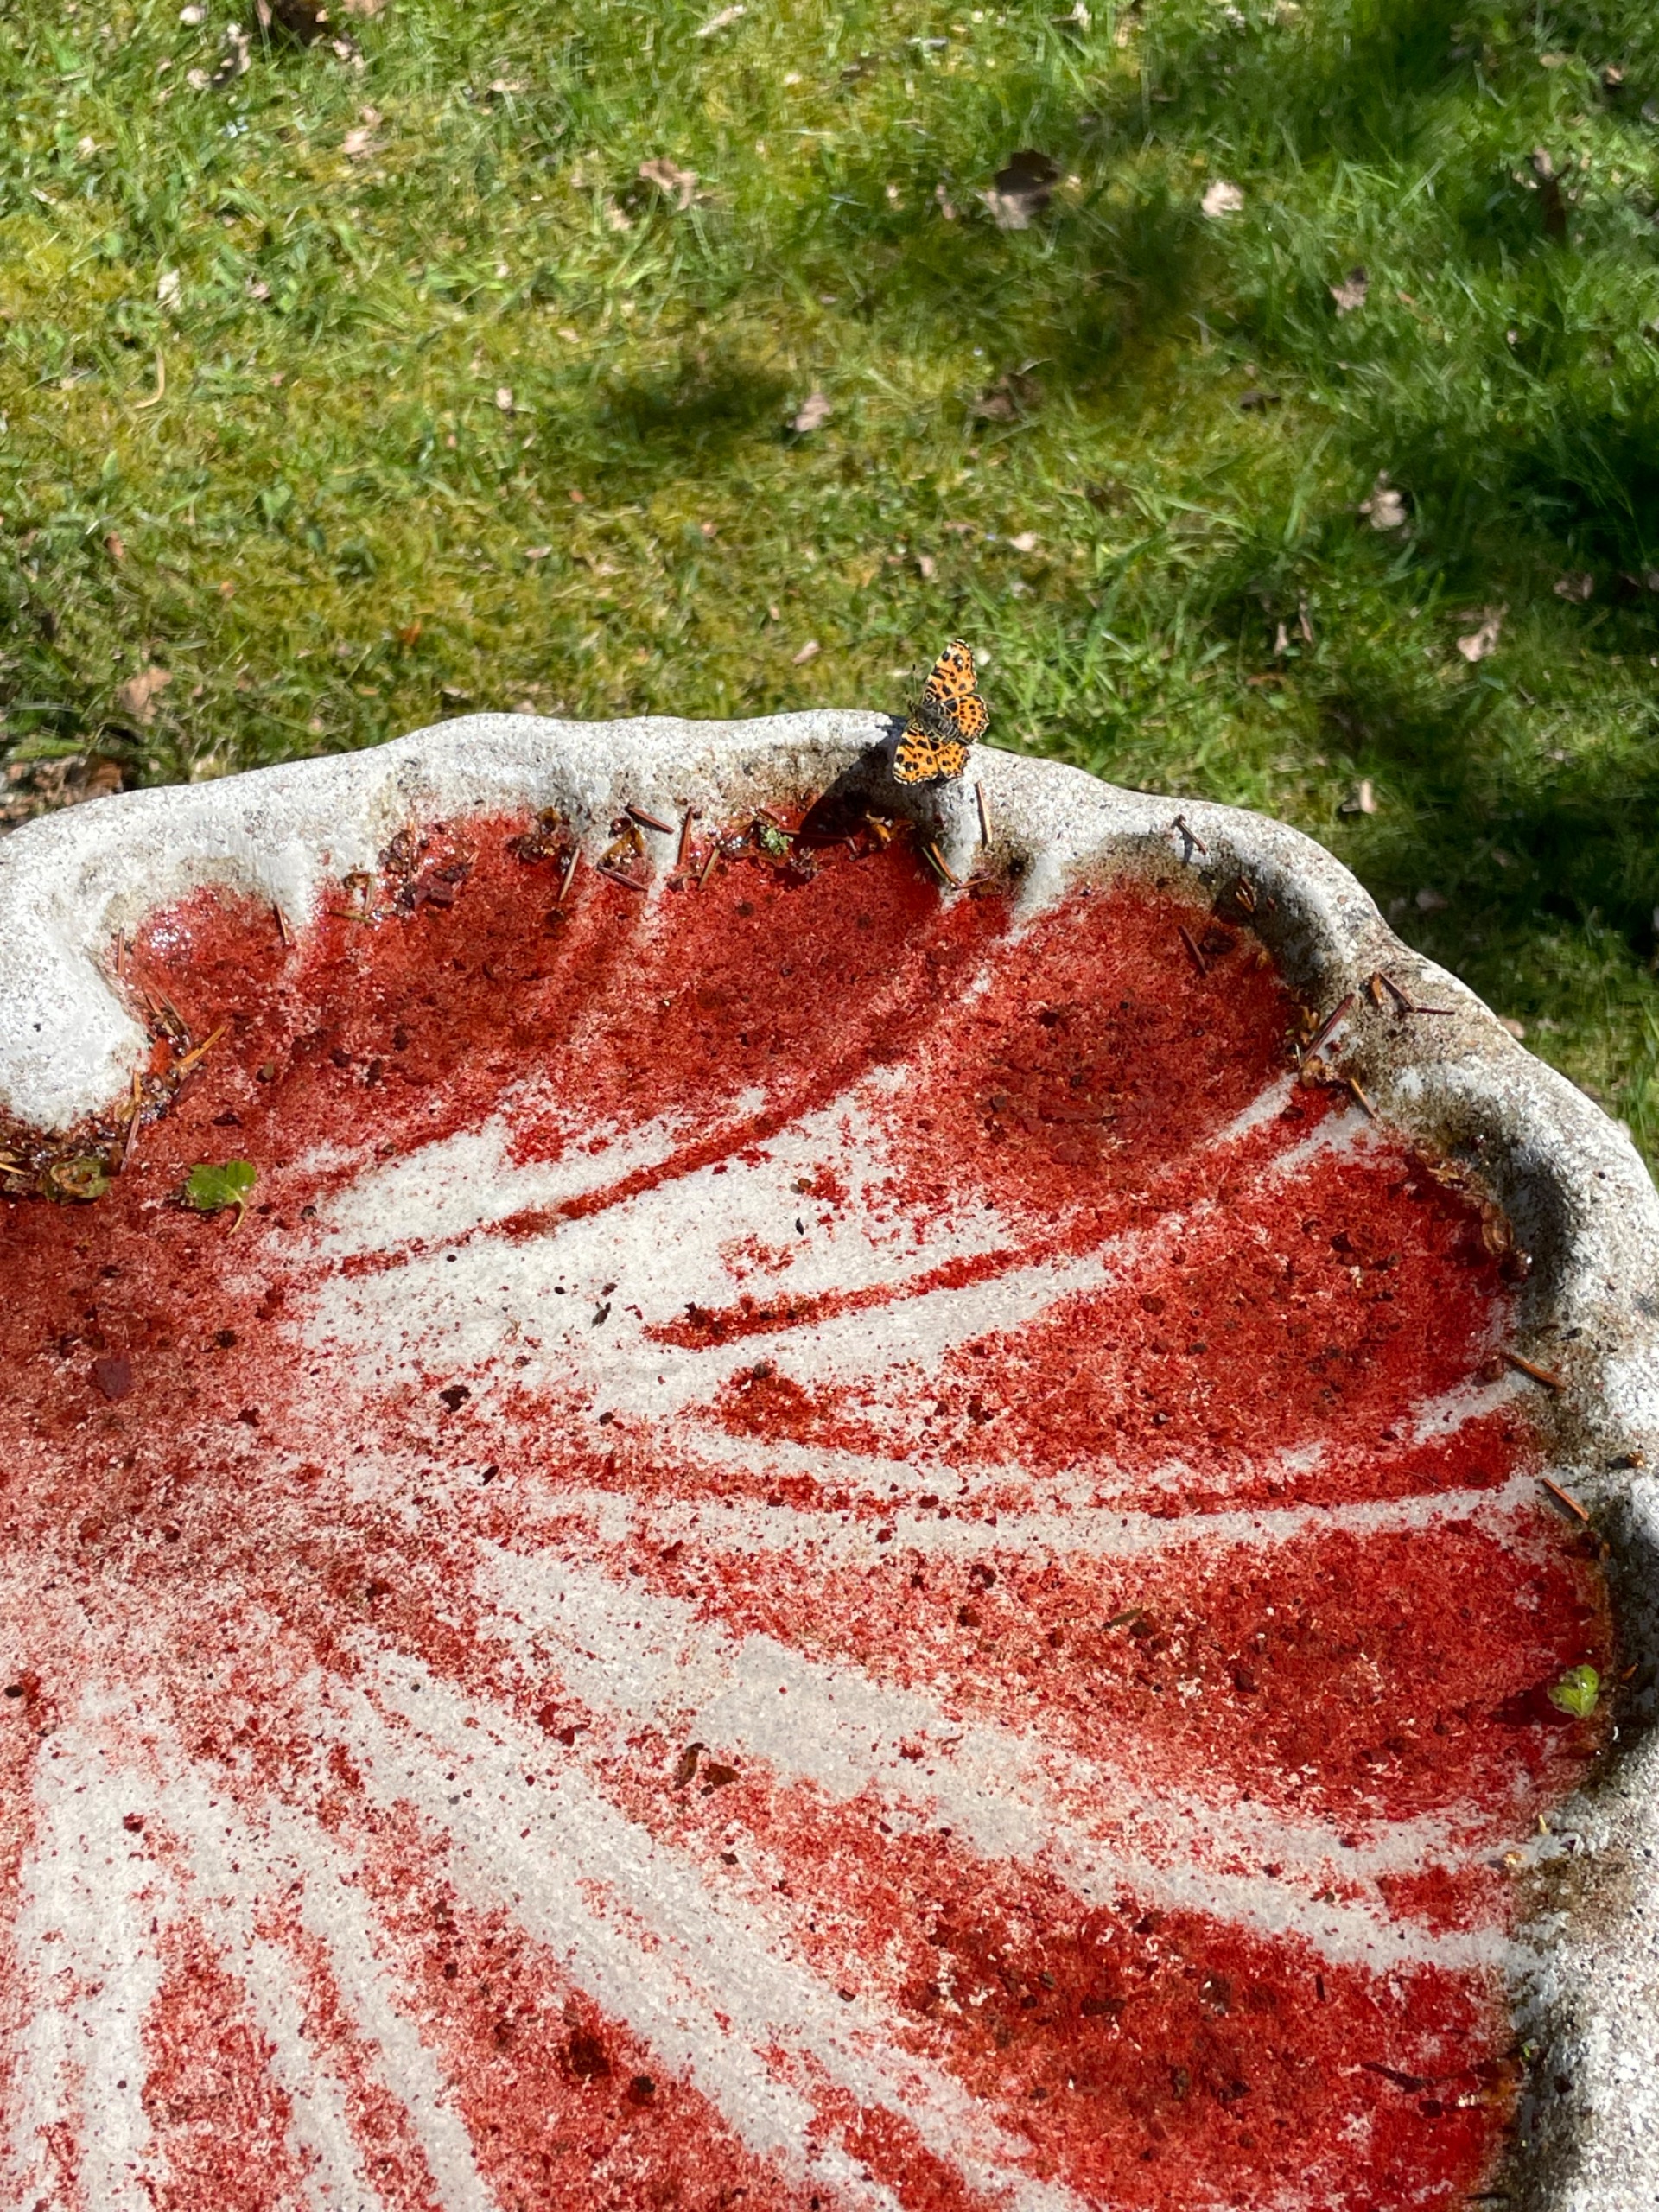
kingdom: Animalia
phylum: Arthropoda
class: Insecta
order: Lepidoptera
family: Nymphalidae
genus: Araschnia
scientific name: Araschnia levana
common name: Nældesommerfugl
